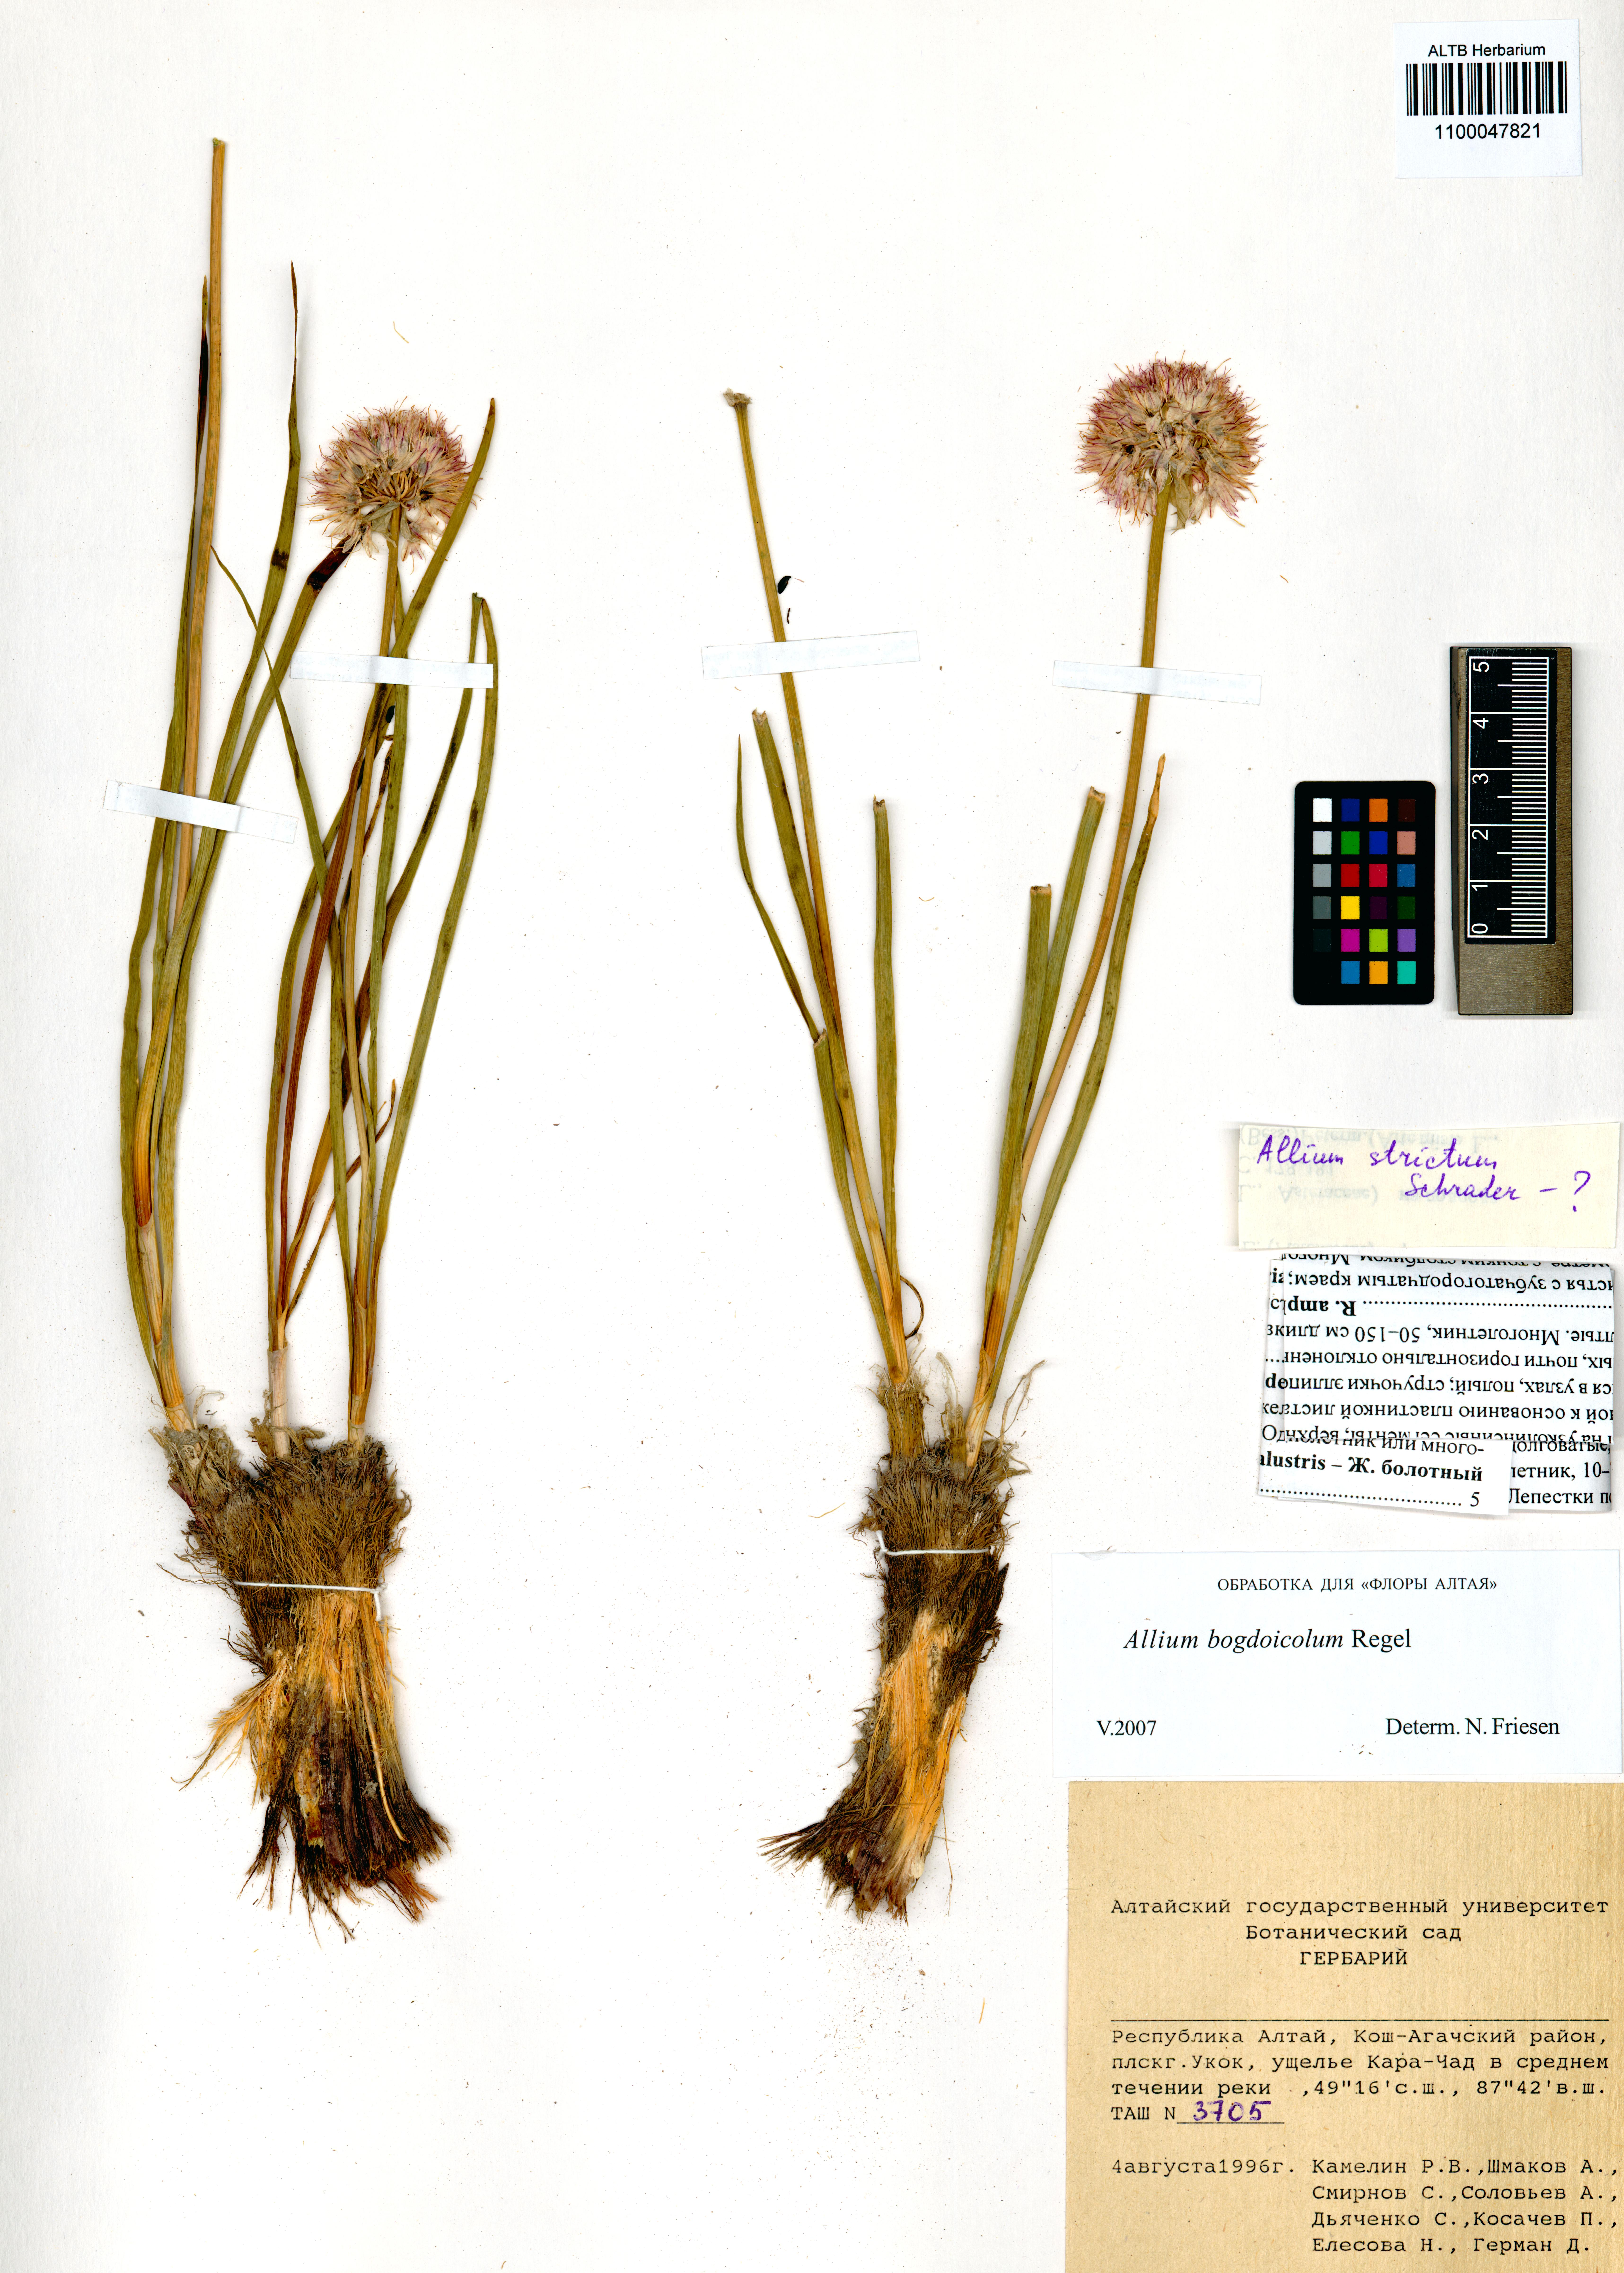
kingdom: Plantae
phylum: Tracheophyta
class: Liliopsida
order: Asparagales
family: Amaryllidaceae
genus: Allium
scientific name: Allium schrenkii
